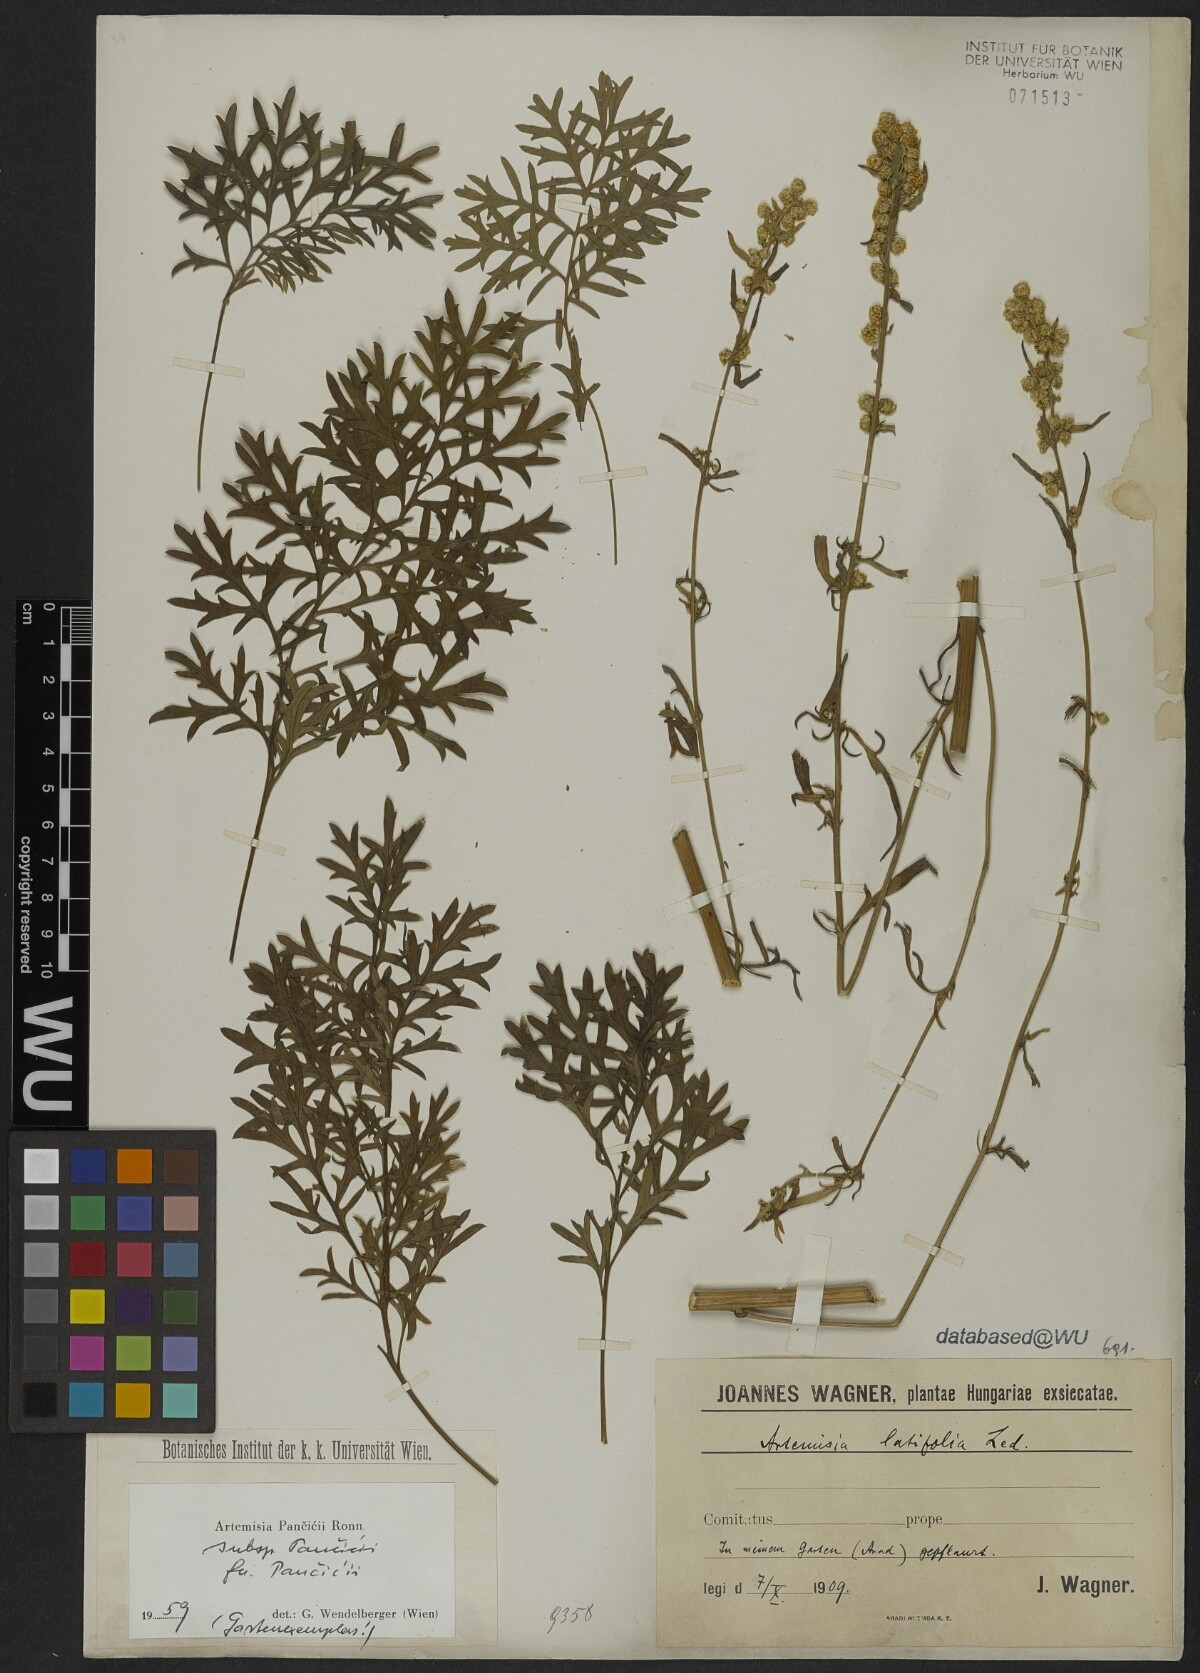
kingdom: Plantae
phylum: Tracheophyta
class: Magnoliopsida
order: Asterales
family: Asteraceae
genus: Artemisia
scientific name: Artemisia pancicii
